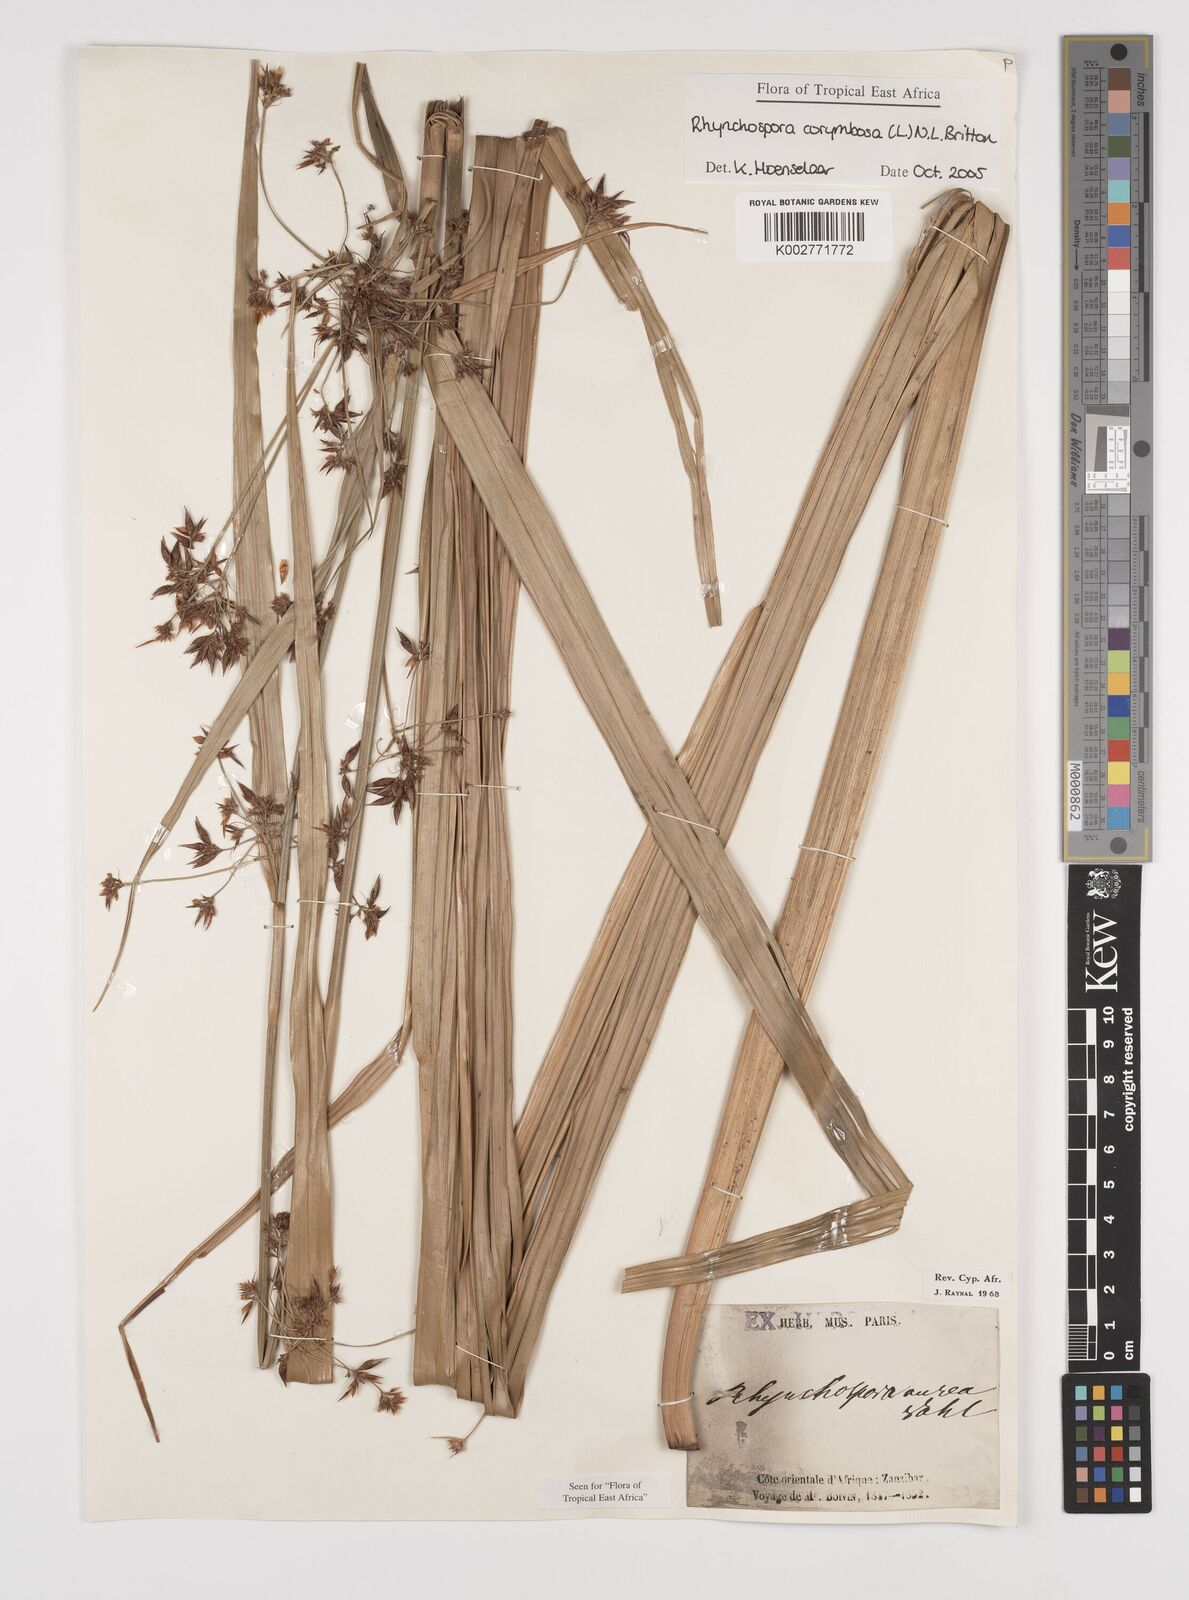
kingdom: Plantae
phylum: Tracheophyta
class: Liliopsida
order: Poales
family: Cyperaceae
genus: Rhynchospora
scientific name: Rhynchospora corymbosa
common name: Golden beak sedge
